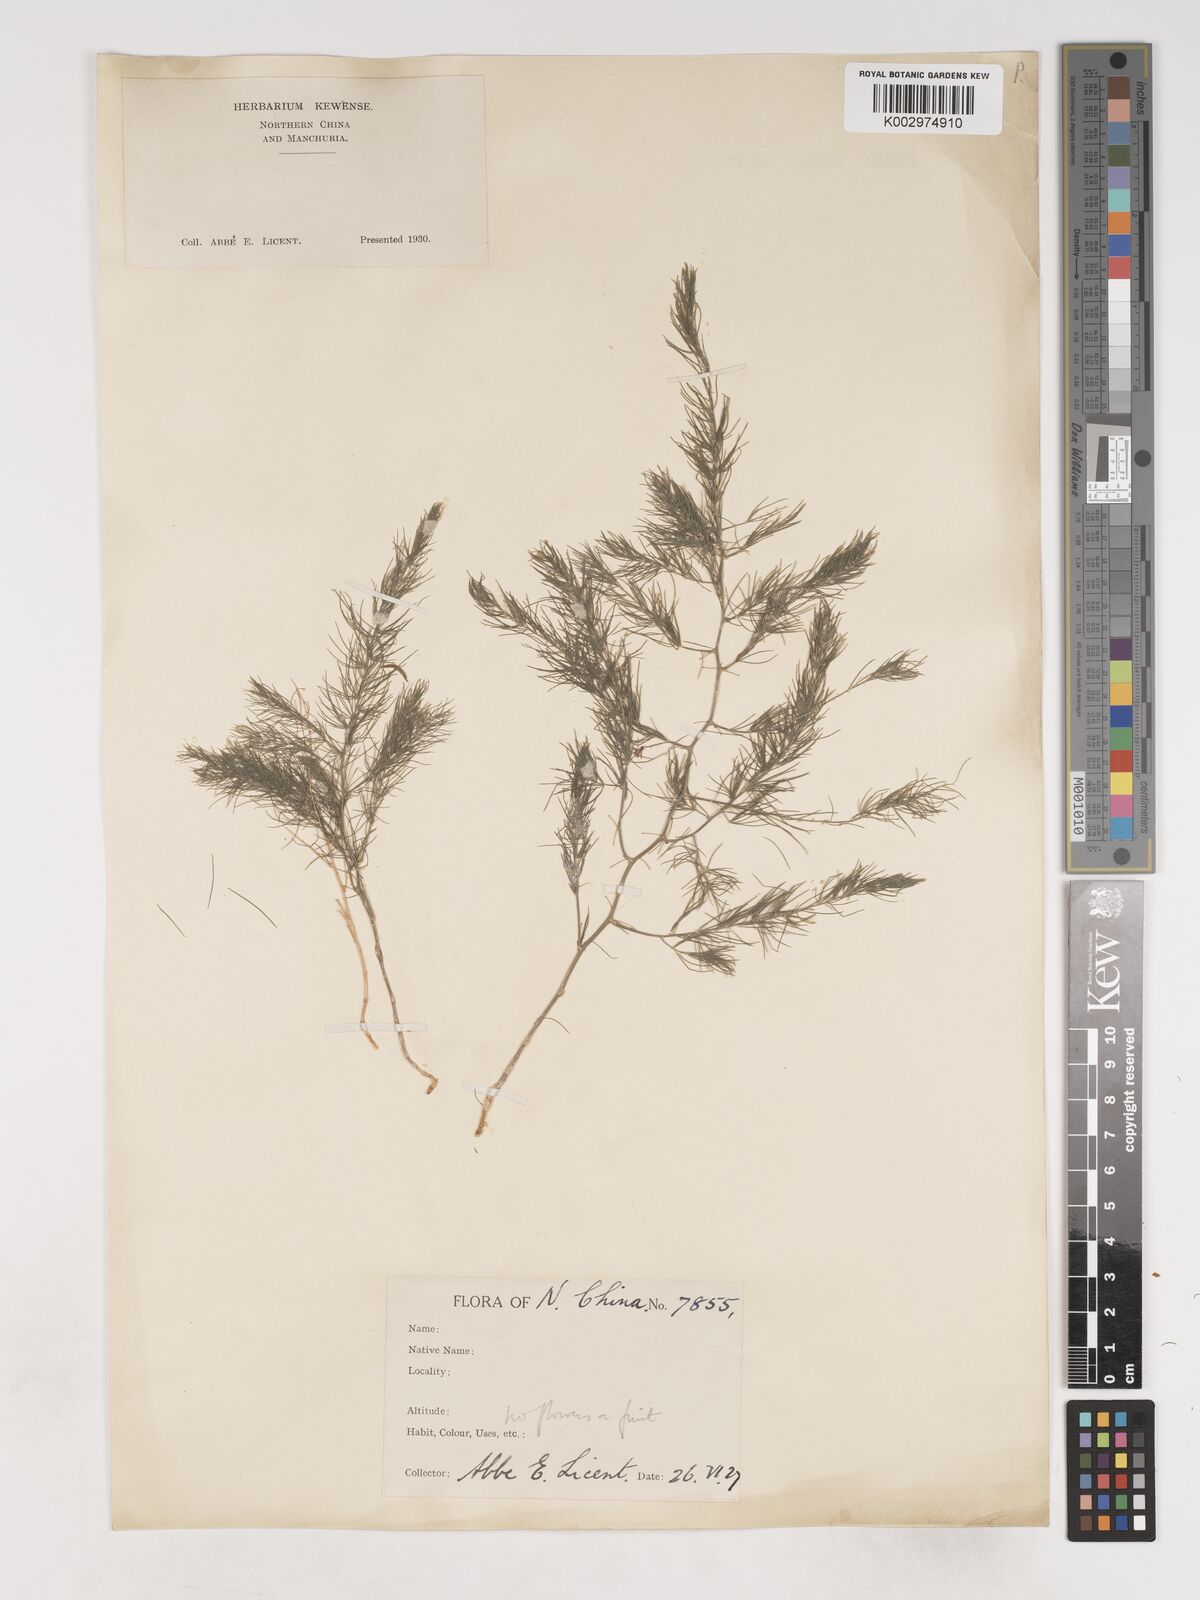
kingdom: Plantae
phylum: Tracheophyta
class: Liliopsida
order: Asparagales
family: Asparagaceae
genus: Asparagus
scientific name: Asparagus
